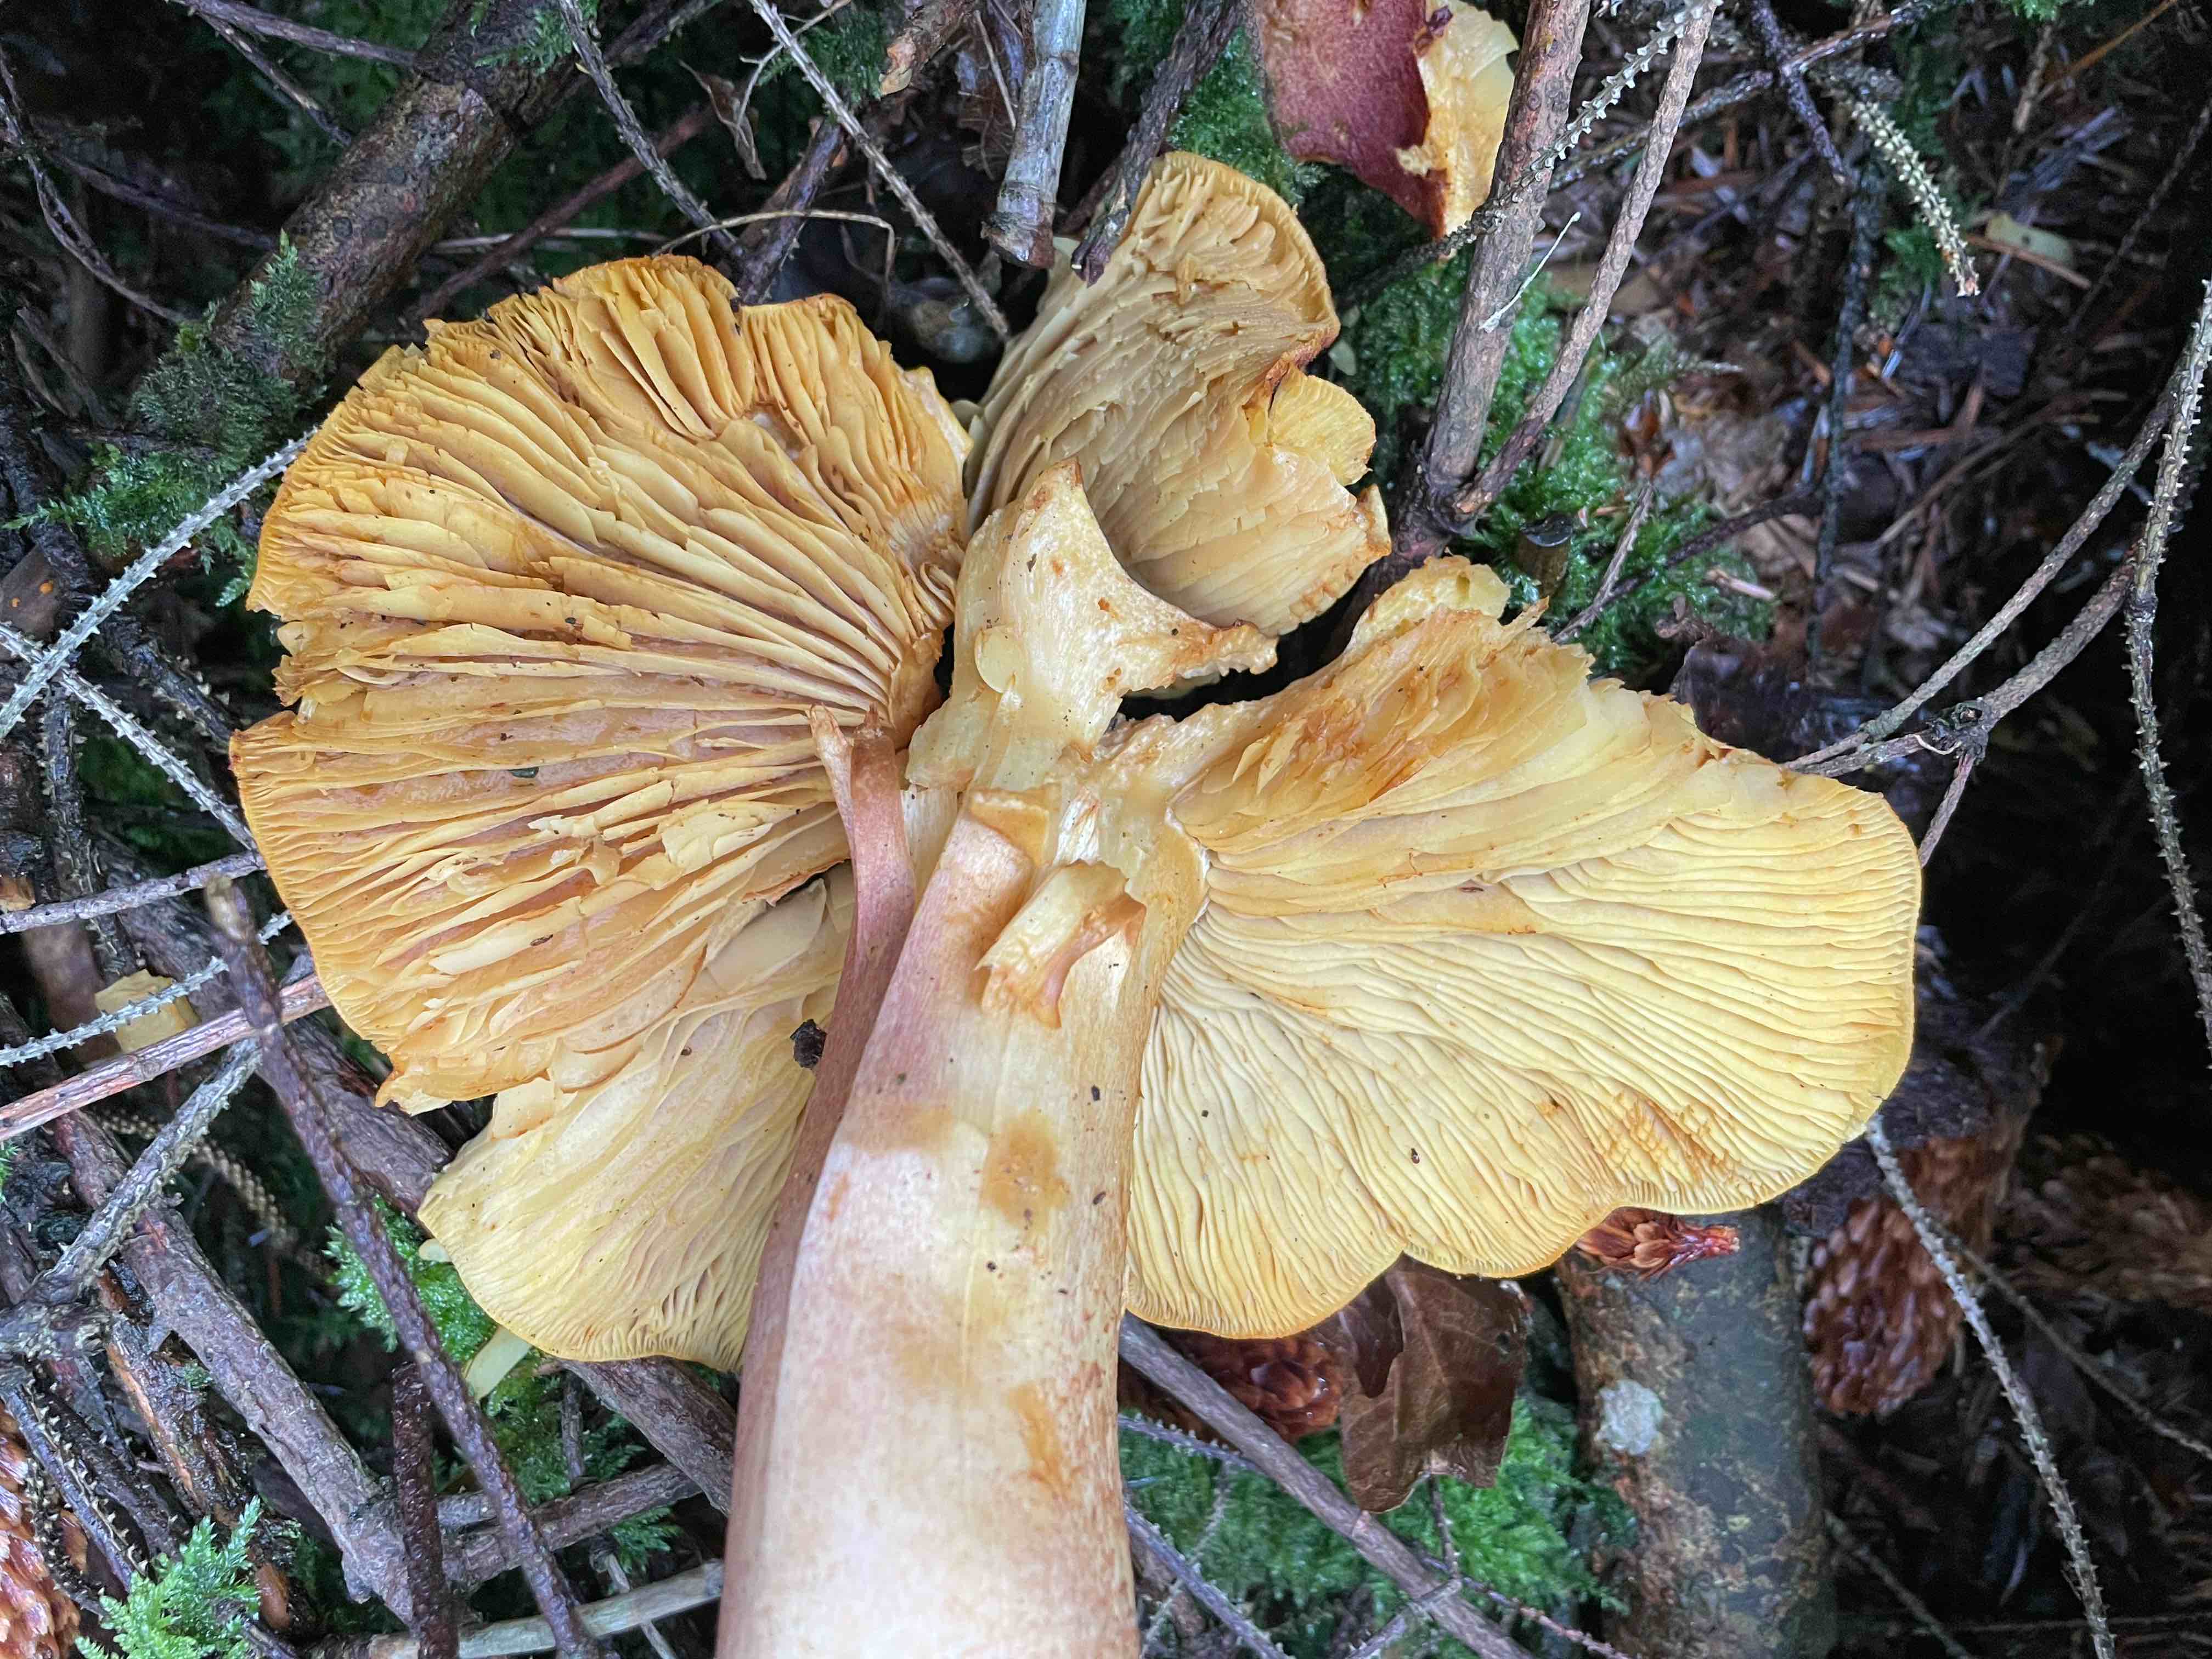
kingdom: Fungi
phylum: Basidiomycota
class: Agaricomycetes
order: Agaricales
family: Tricholomataceae
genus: Tricholomopsis
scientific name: Tricholomopsis rutilans
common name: purpur-væbnerhat
